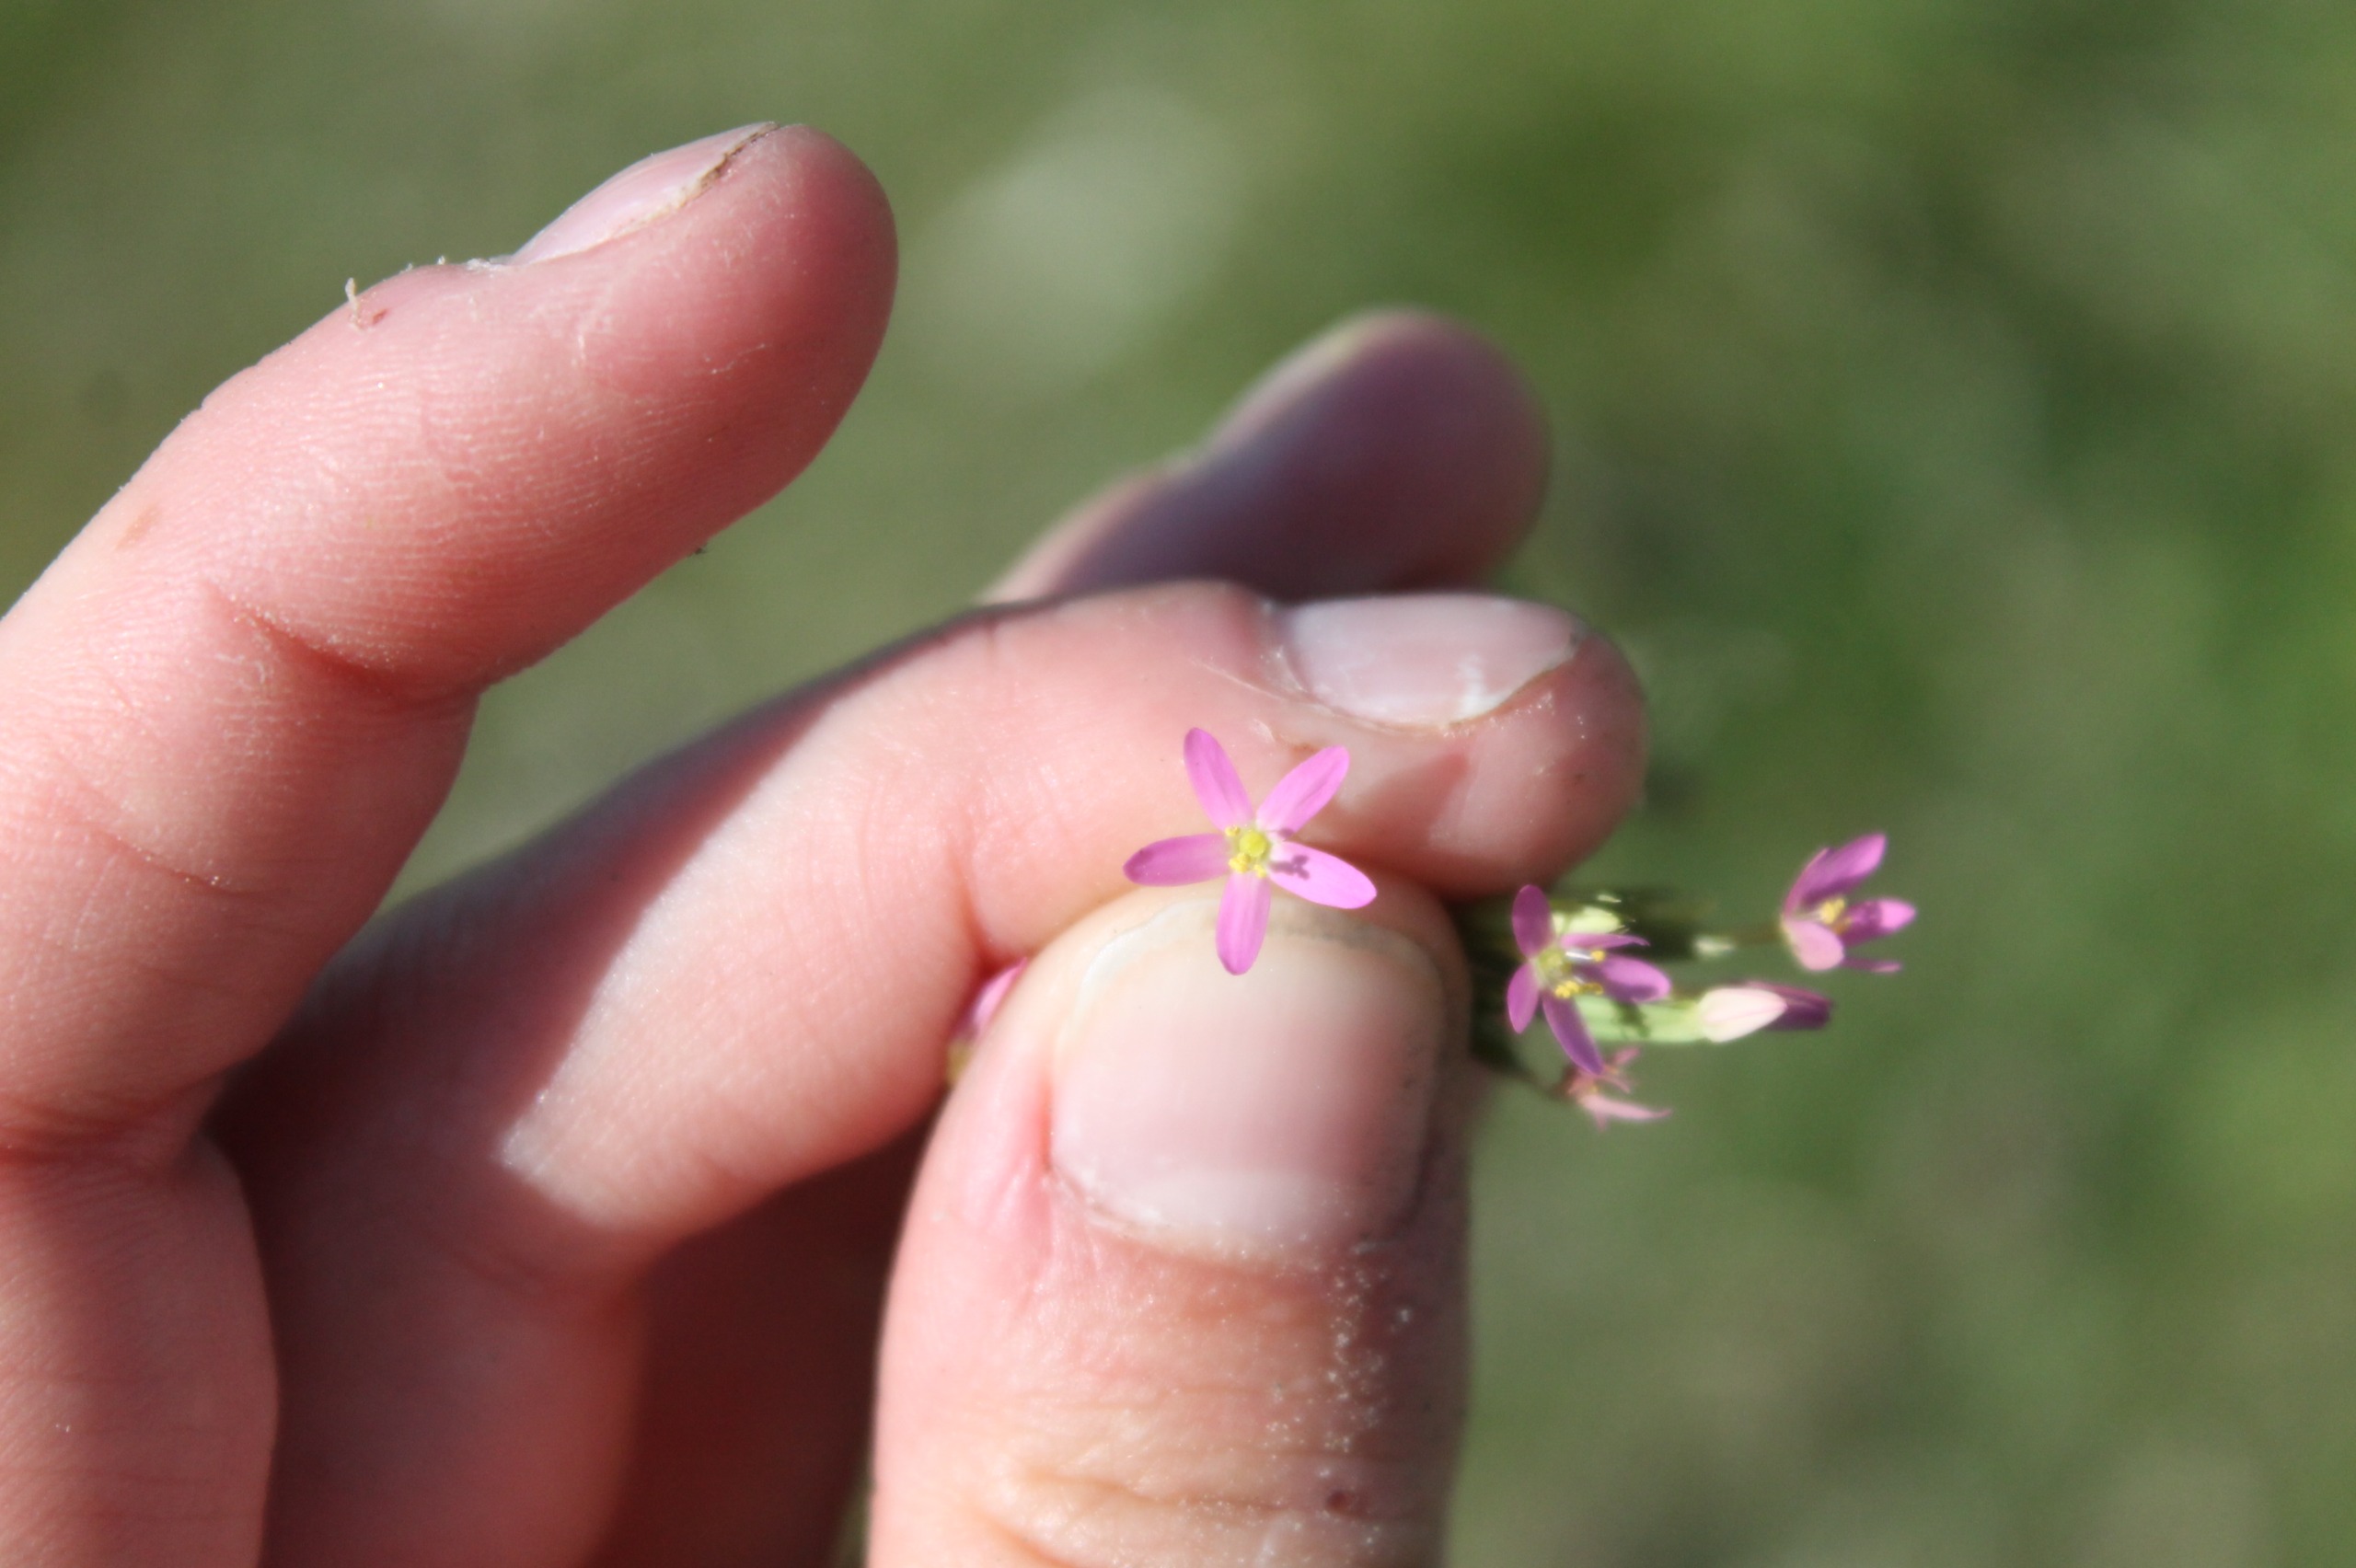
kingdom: Plantae
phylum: Tracheophyta
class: Magnoliopsida
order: Gentianales
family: Gentianaceae
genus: Centaurium
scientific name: Centaurium pulchellum
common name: Liden tusindgylden
